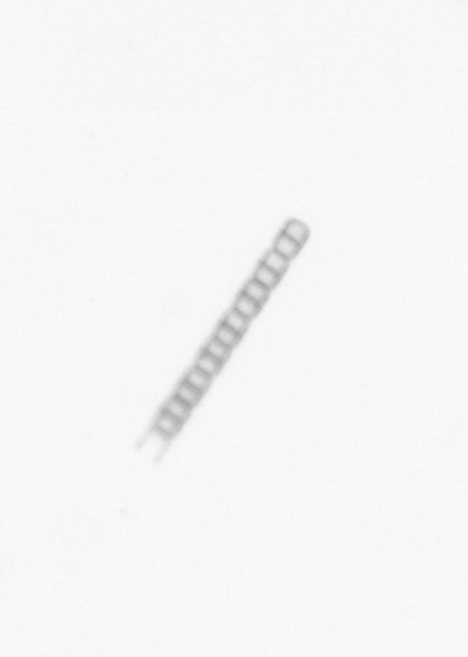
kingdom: Chromista
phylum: Ochrophyta
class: Bacillariophyceae
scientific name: Bacillariophyceae
